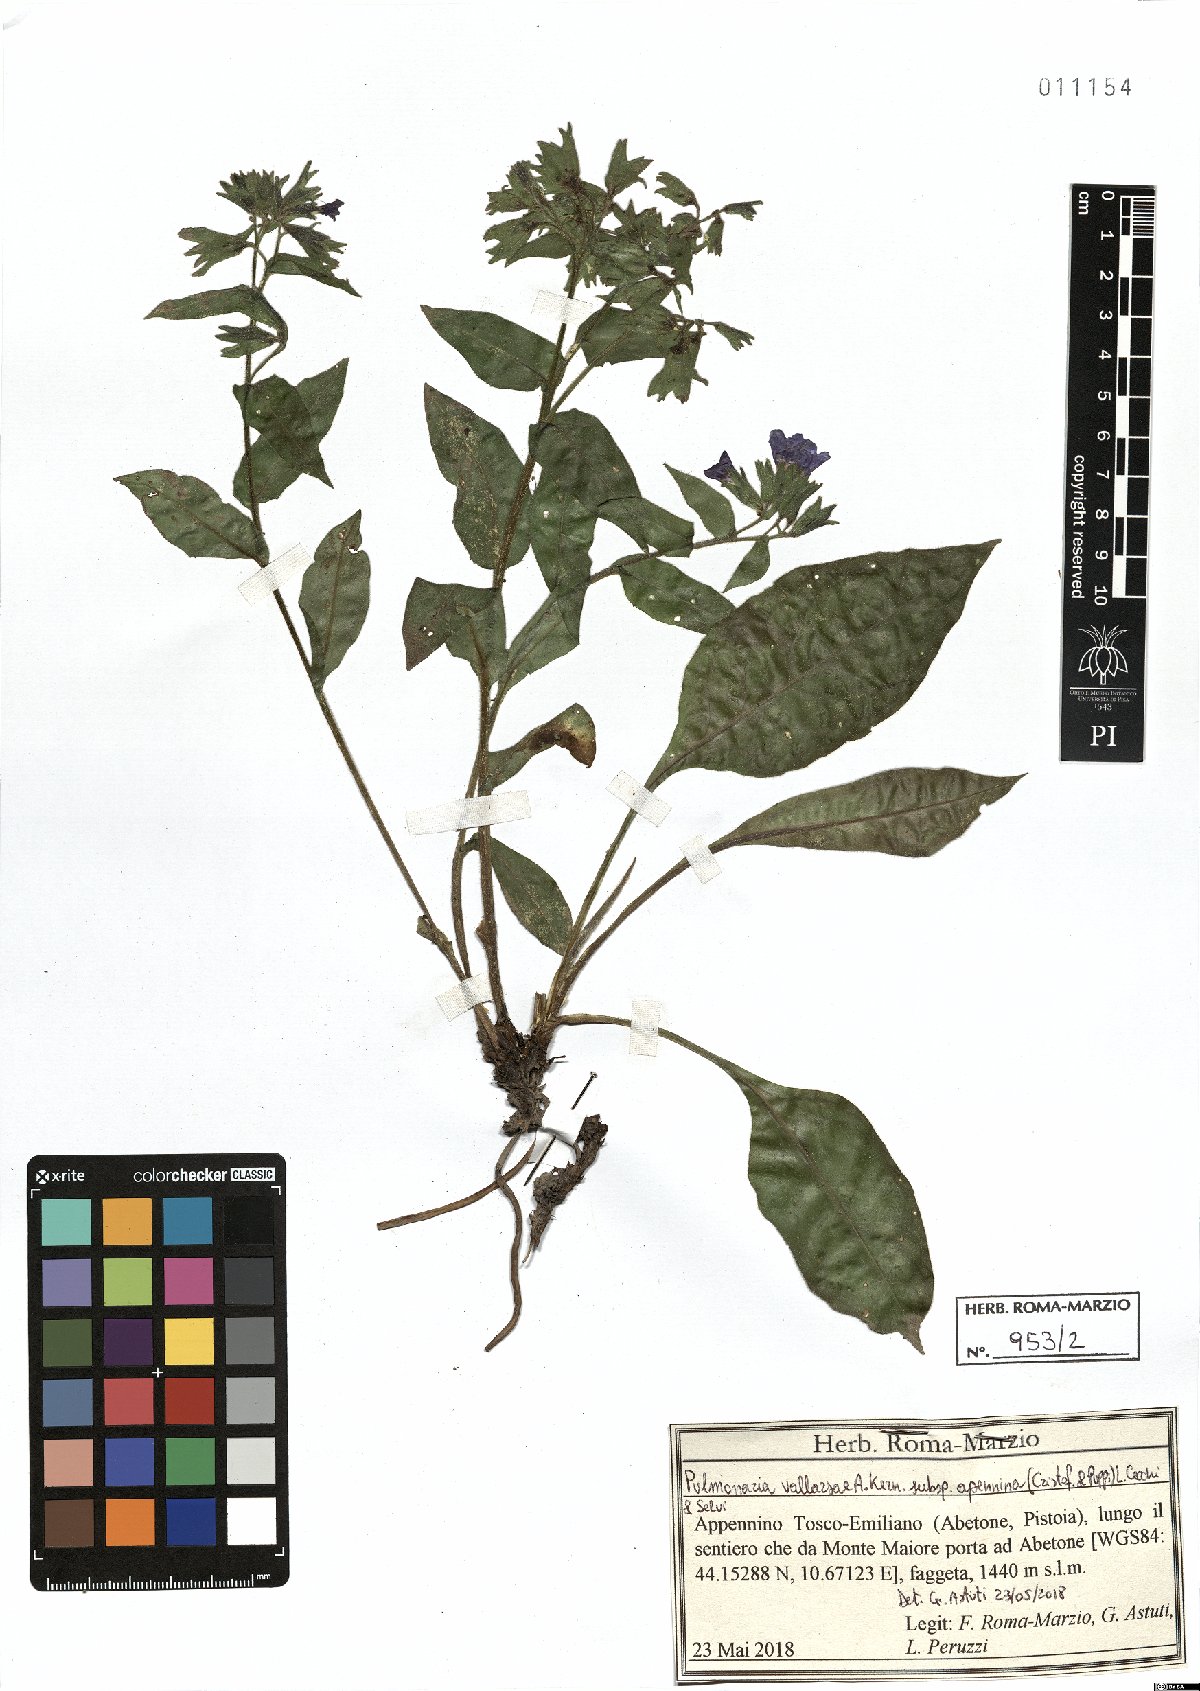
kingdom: Plantae
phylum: Tracheophyta
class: Magnoliopsida
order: Boraginales
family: Boraginaceae
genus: Pulmonaria
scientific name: Pulmonaria hirta
